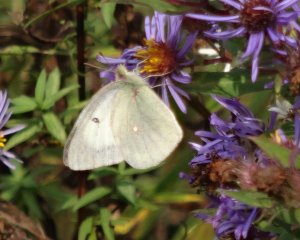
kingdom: Animalia
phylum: Arthropoda
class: Insecta
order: Lepidoptera
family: Pieridae
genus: Colias
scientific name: Colias philodice
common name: Clouded Sulphur
